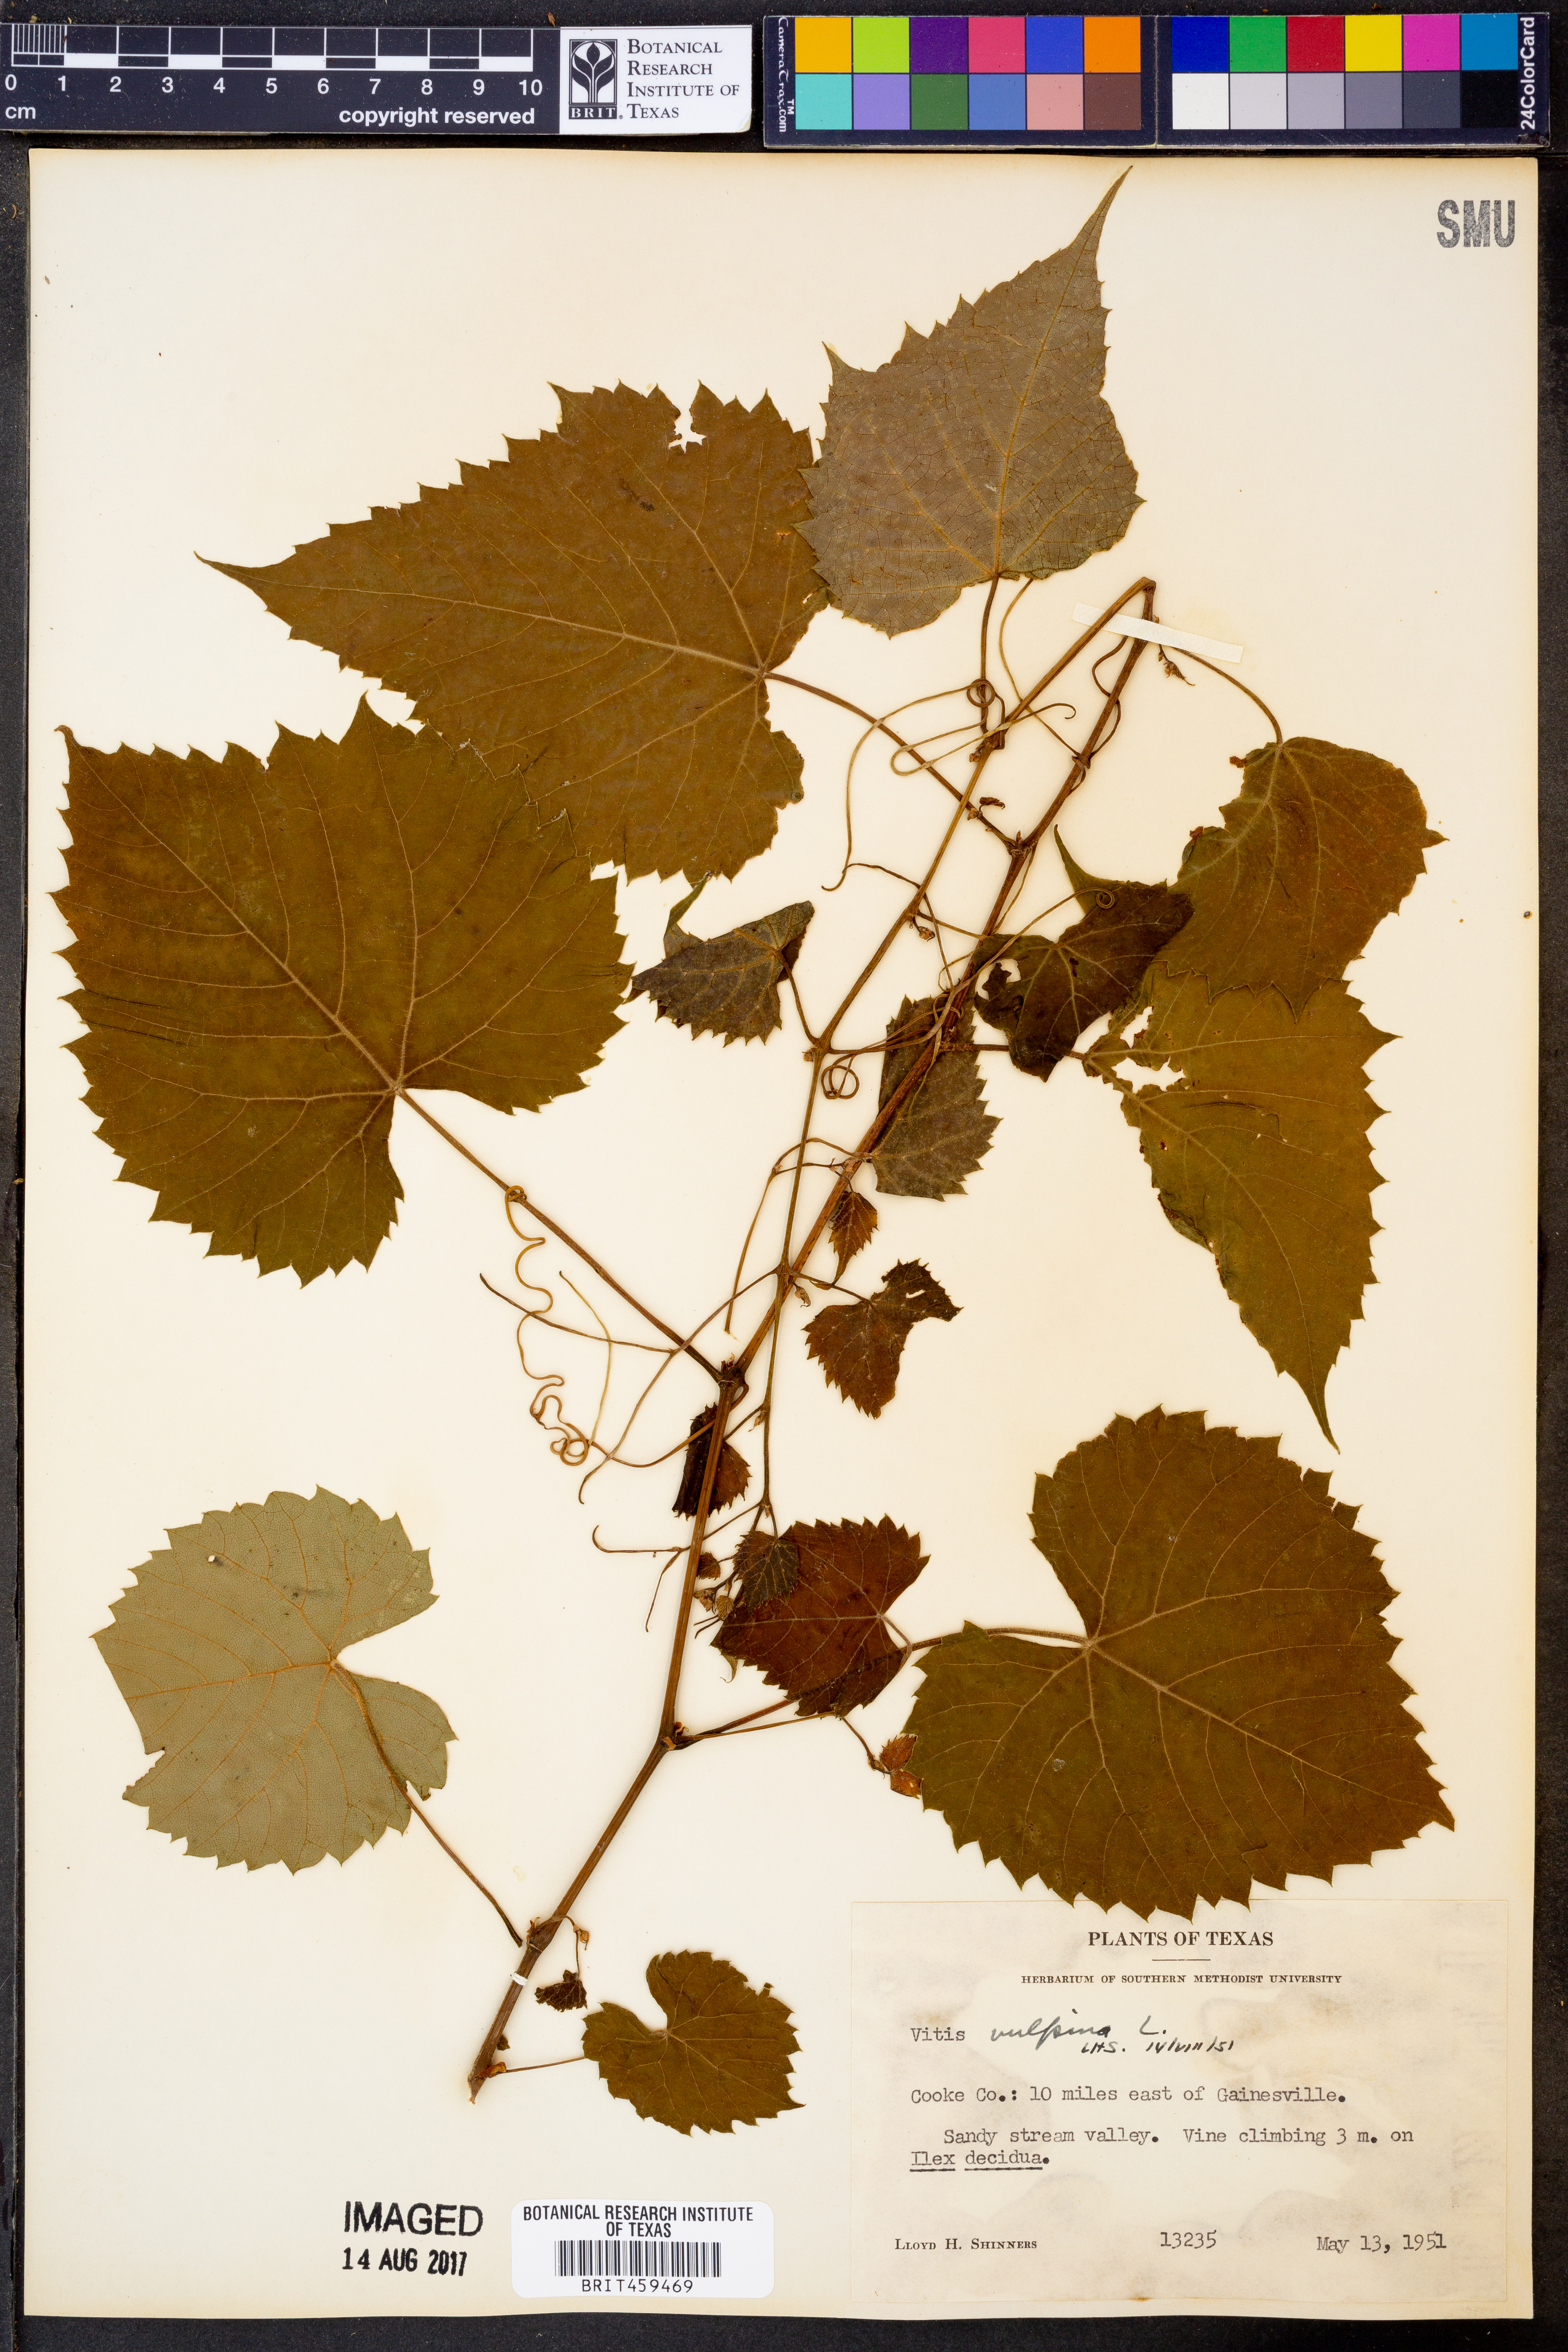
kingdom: Plantae
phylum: Tracheophyta
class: Magnoliopsida
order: Vitales
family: Vitaceae
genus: Vitis
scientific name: Vitis vulpina
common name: Frost grape
